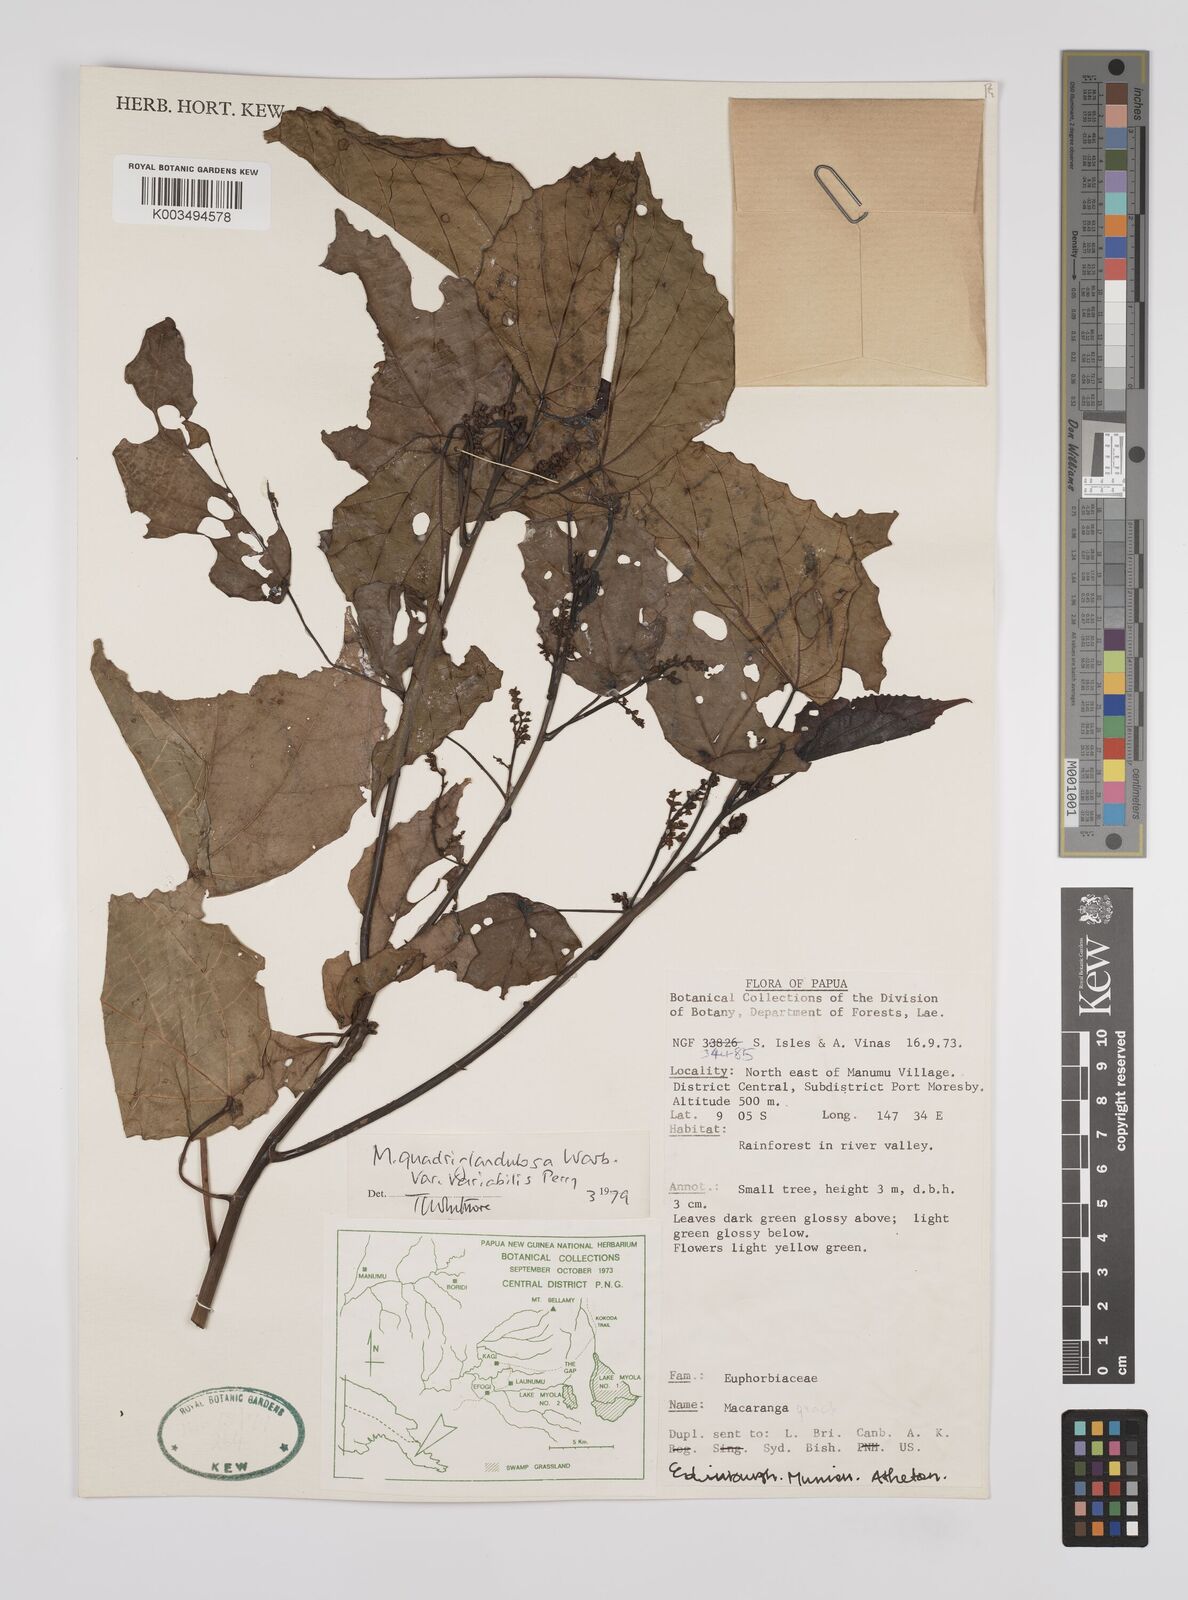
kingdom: Plantae
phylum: Tracheophyta
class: Magnoliopsida
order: Malpighiales
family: Euphorbiaceae
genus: Macaranga
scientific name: Macaranga quadriglandulosa
